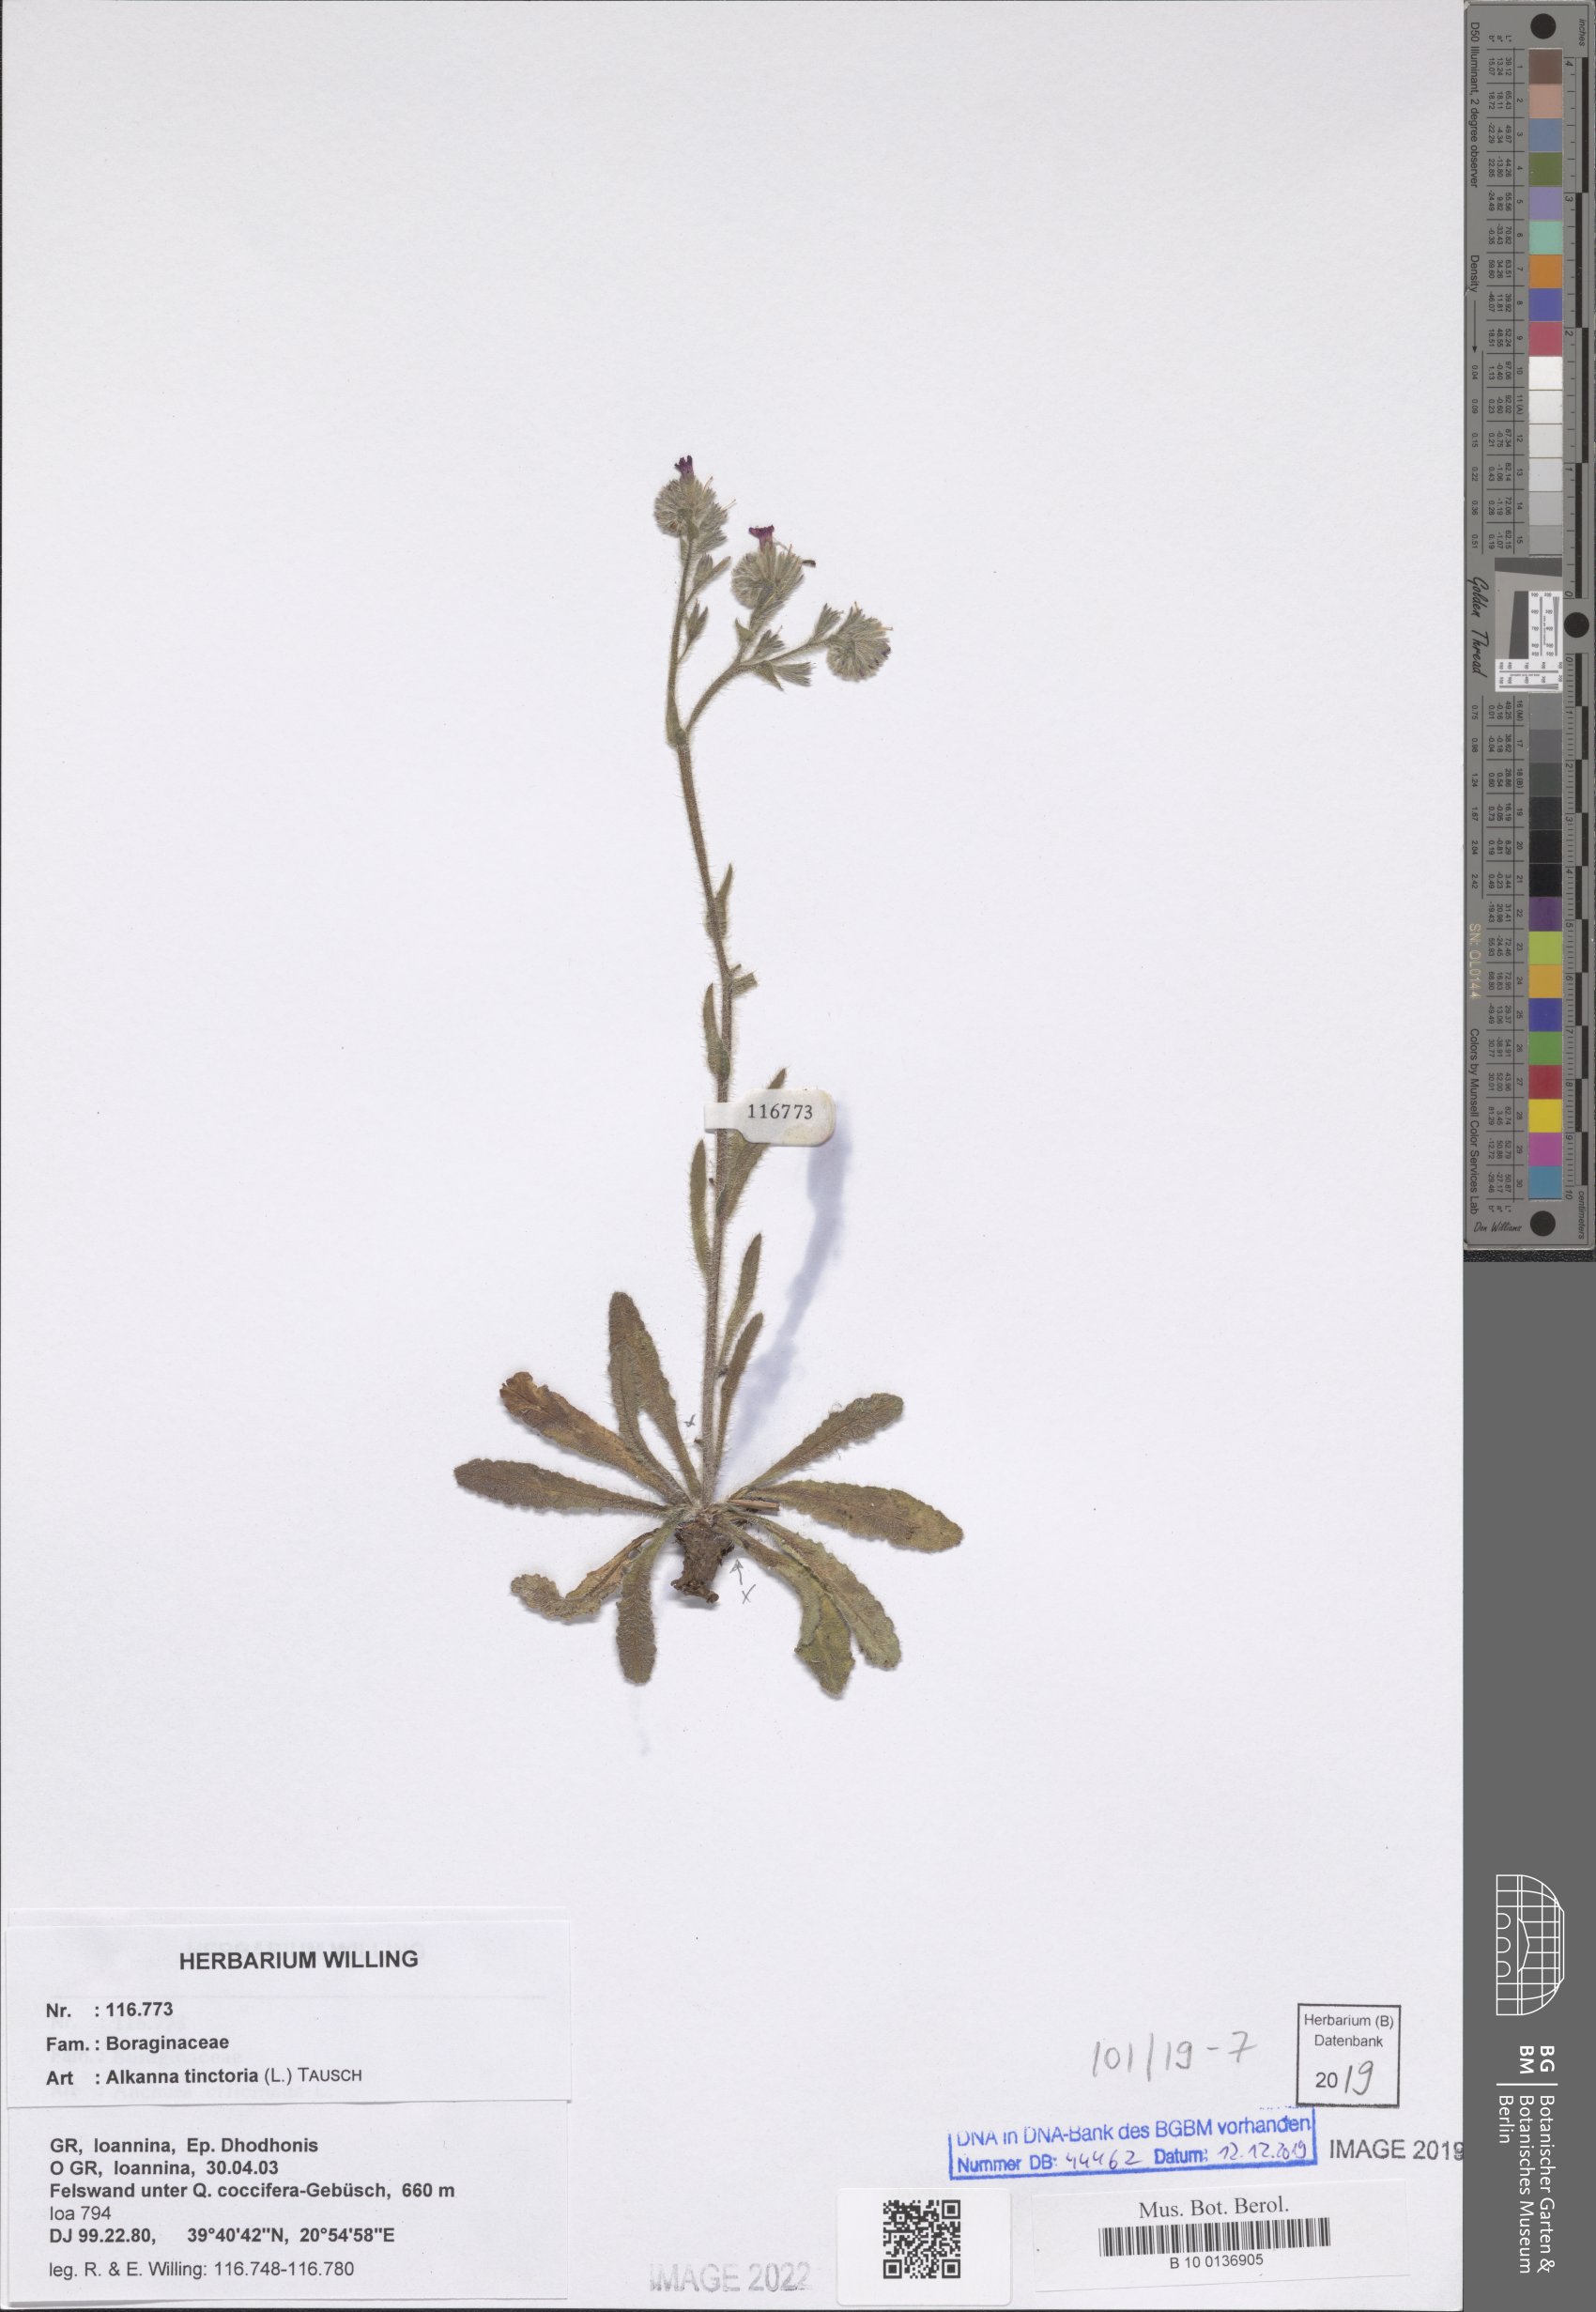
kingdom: Plantae
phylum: Tracheophyta
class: Magnoliopsida
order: Boraginales
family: Boraginaceae
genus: Alkanna
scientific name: Alkanna tinctoria
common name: Dyer's-alkanet
